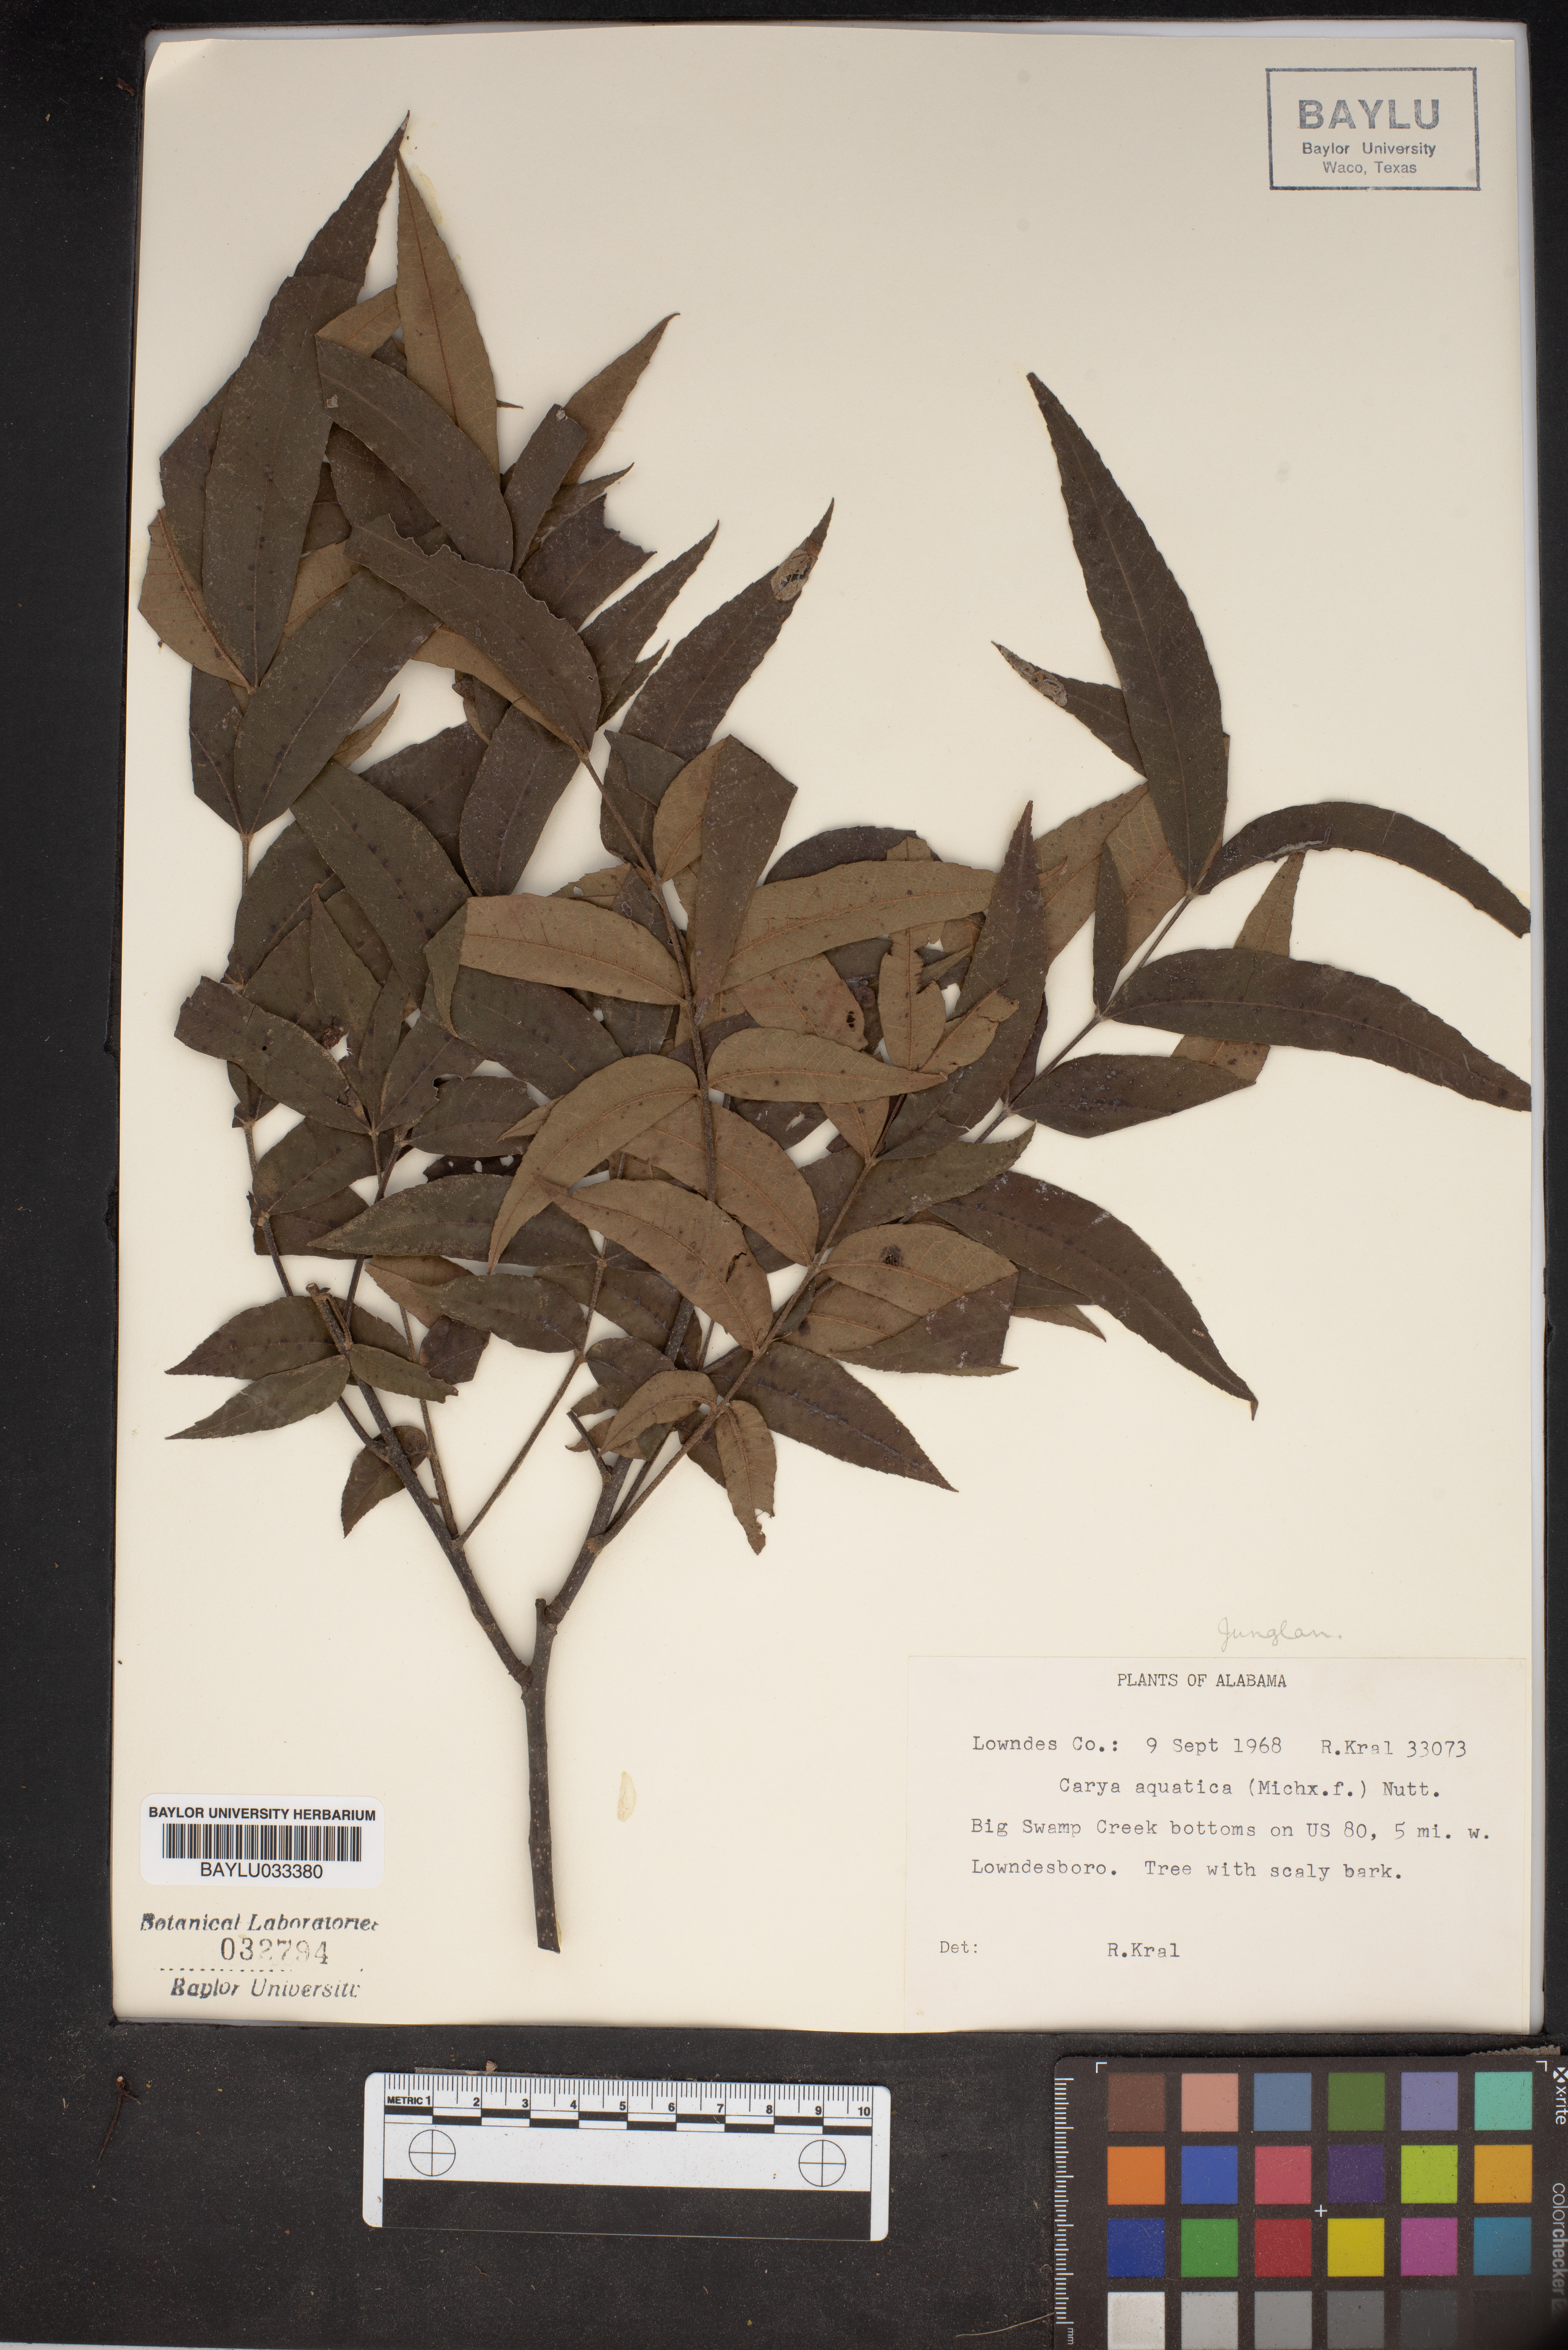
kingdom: Plantae
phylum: Tracheophyta
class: Magnoliopsida
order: Fagales
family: Juglandaceae
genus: Carya
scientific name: Carya aquatica
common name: Water hickory
